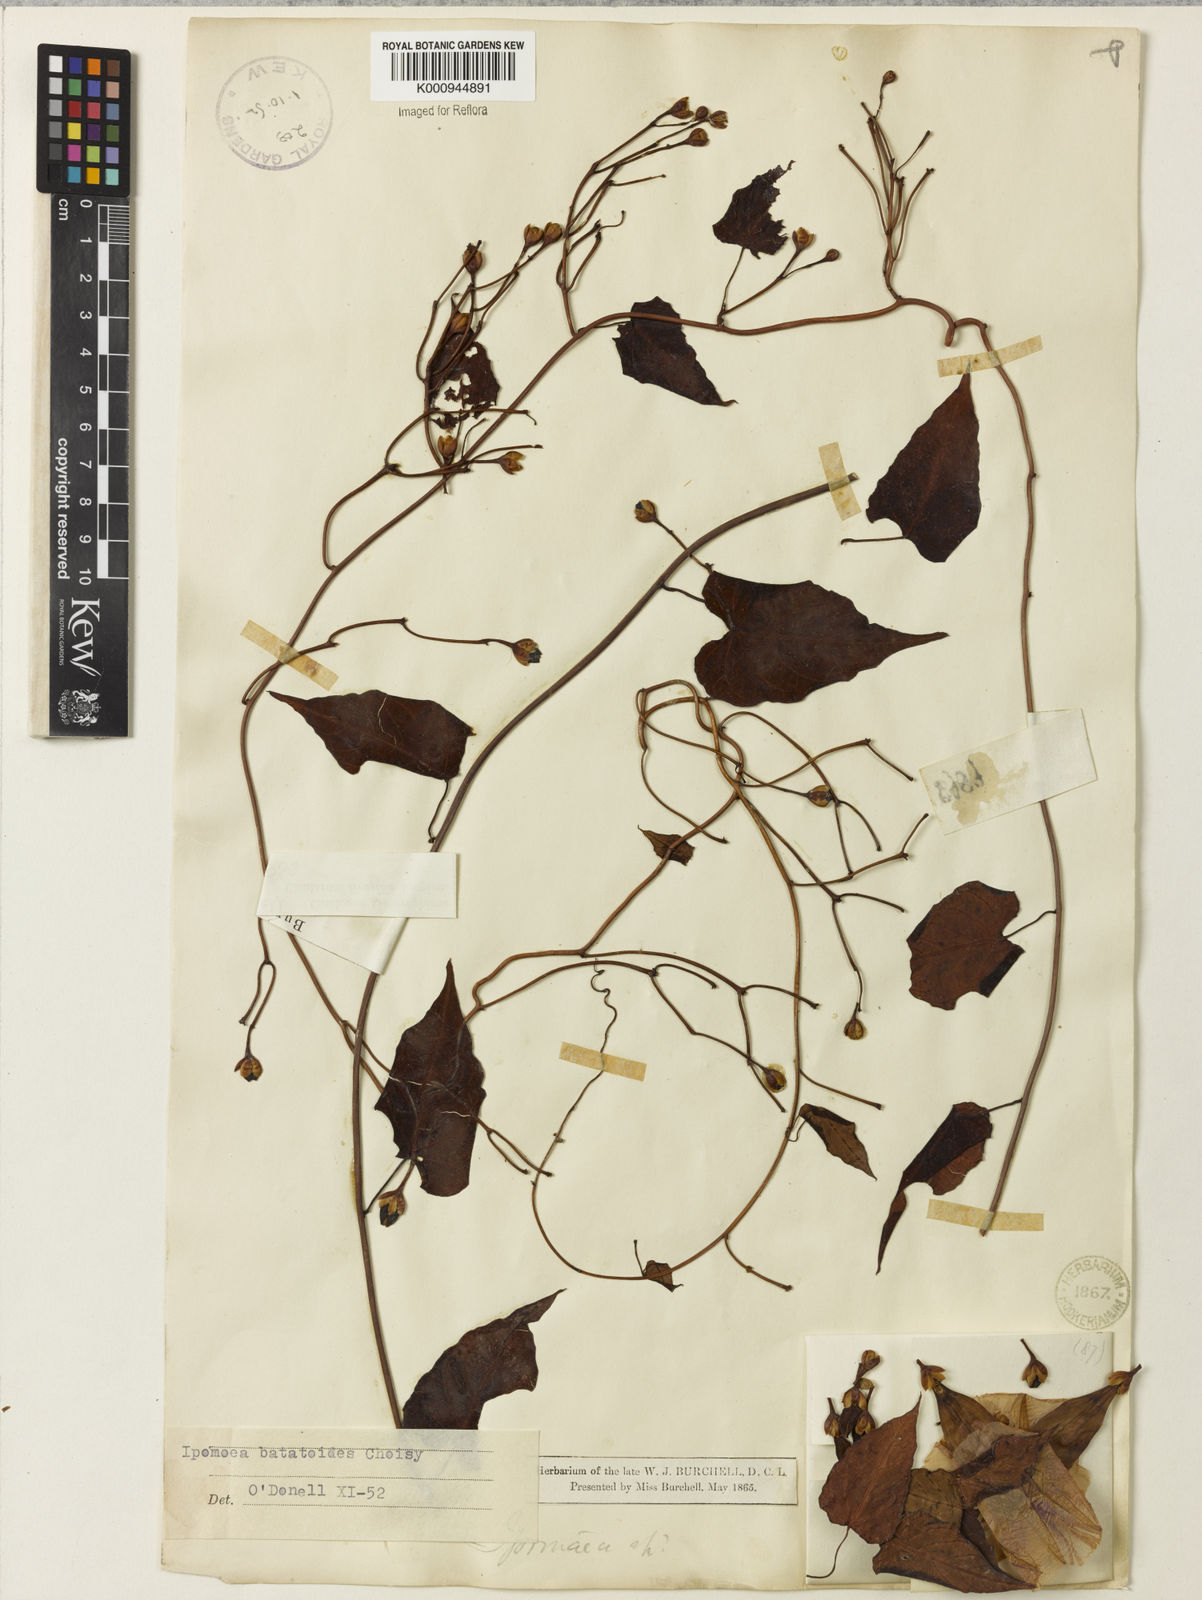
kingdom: Plantae
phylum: Tracheophyta
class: Magnoliopsida
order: Solanales
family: Convolvulaceae
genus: Ipomoea
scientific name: Ipomoea batatoides
